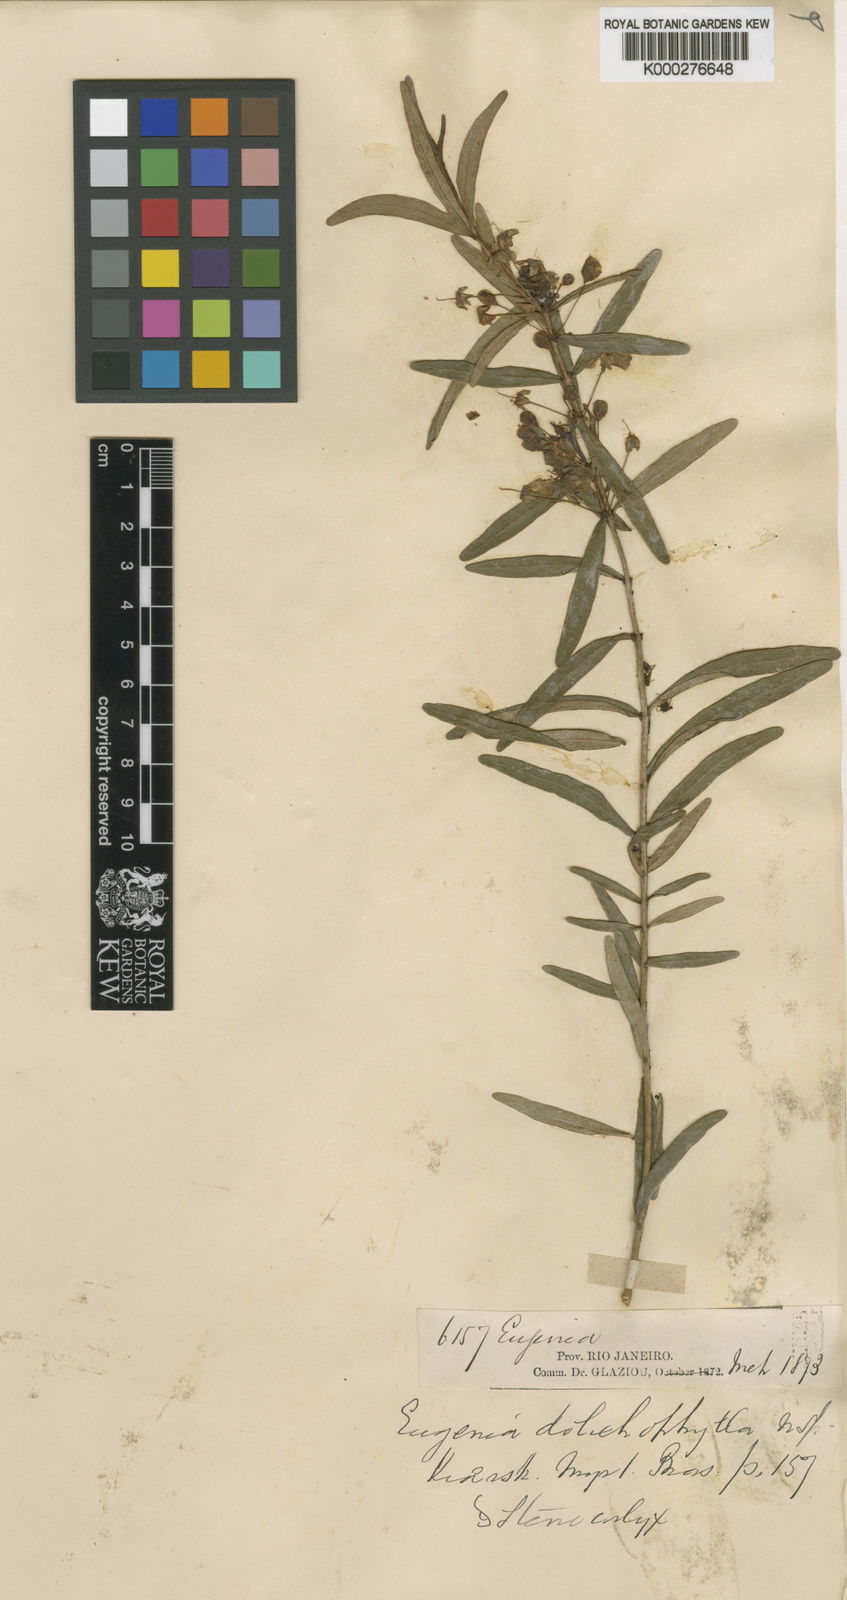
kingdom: Plantae
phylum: Tracheophyta
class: Magnoliopsida
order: Myrtales
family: Myrtaceae
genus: Eugenia
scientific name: Eugenia pitanga
